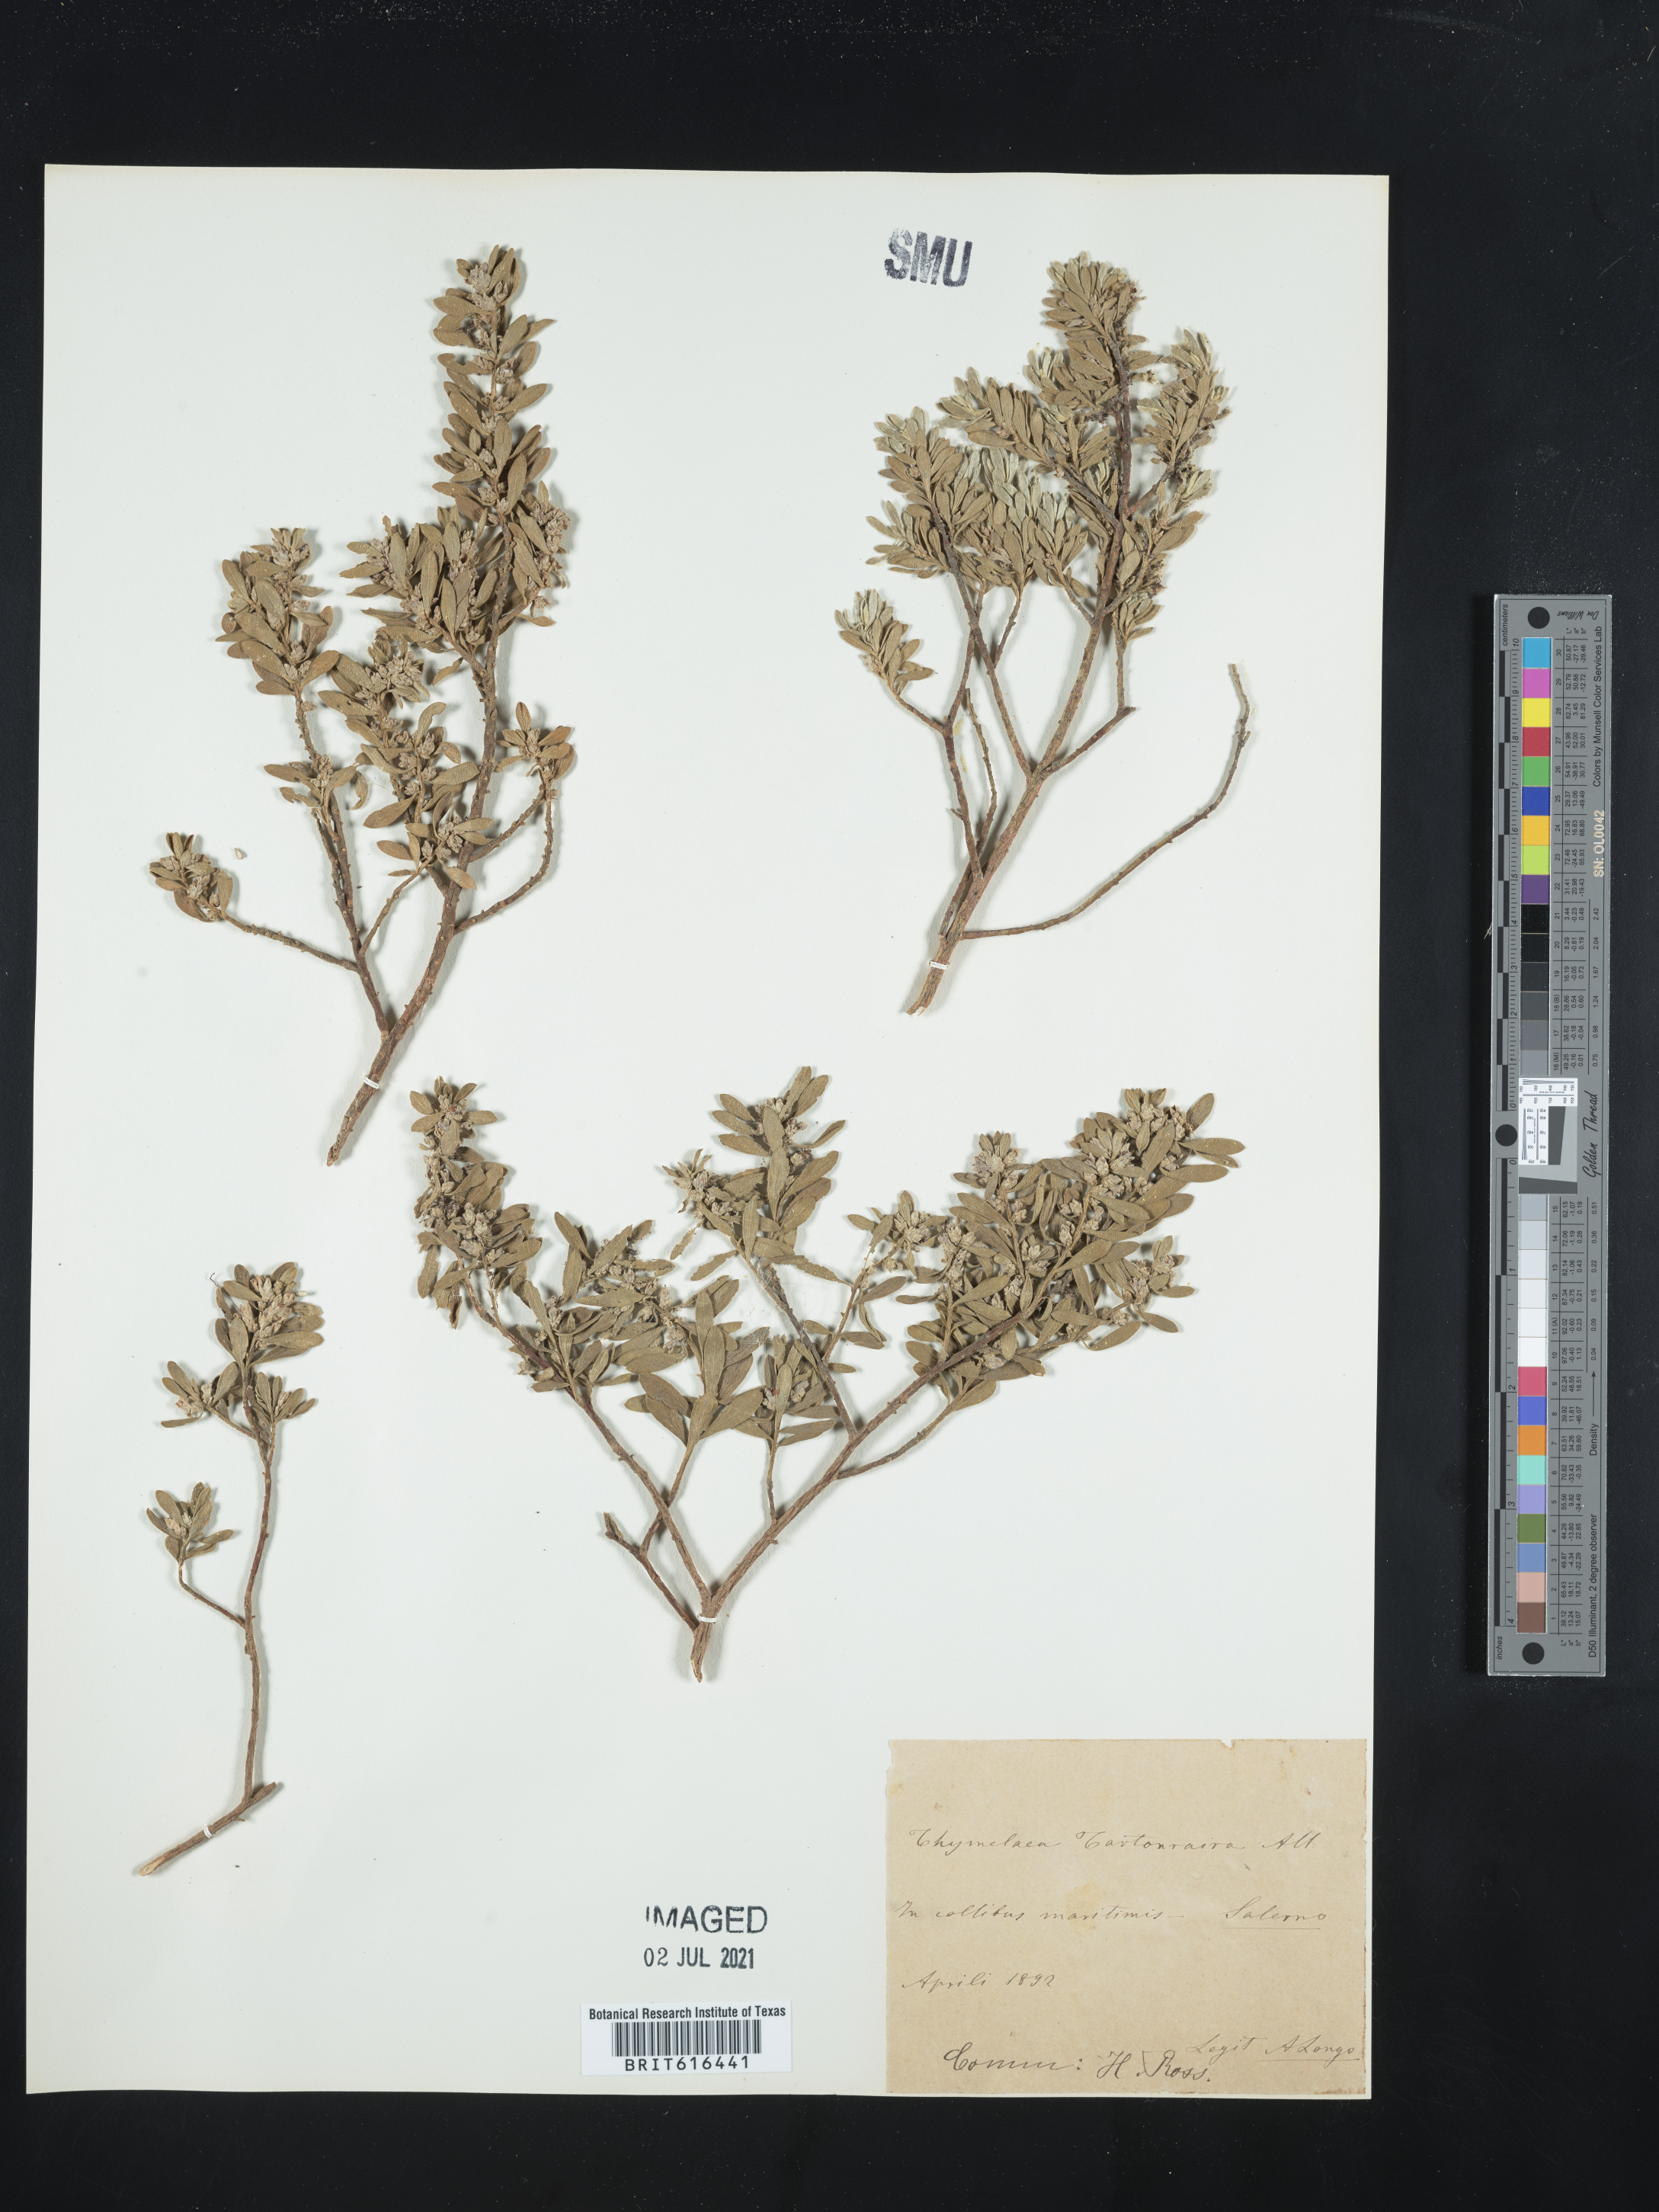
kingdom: Plantae
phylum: Tracheophyta
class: Magnoliopsida
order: Malvales
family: Thymelaeaceae
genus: Thymelaea
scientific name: Thymelaea tartonraira
